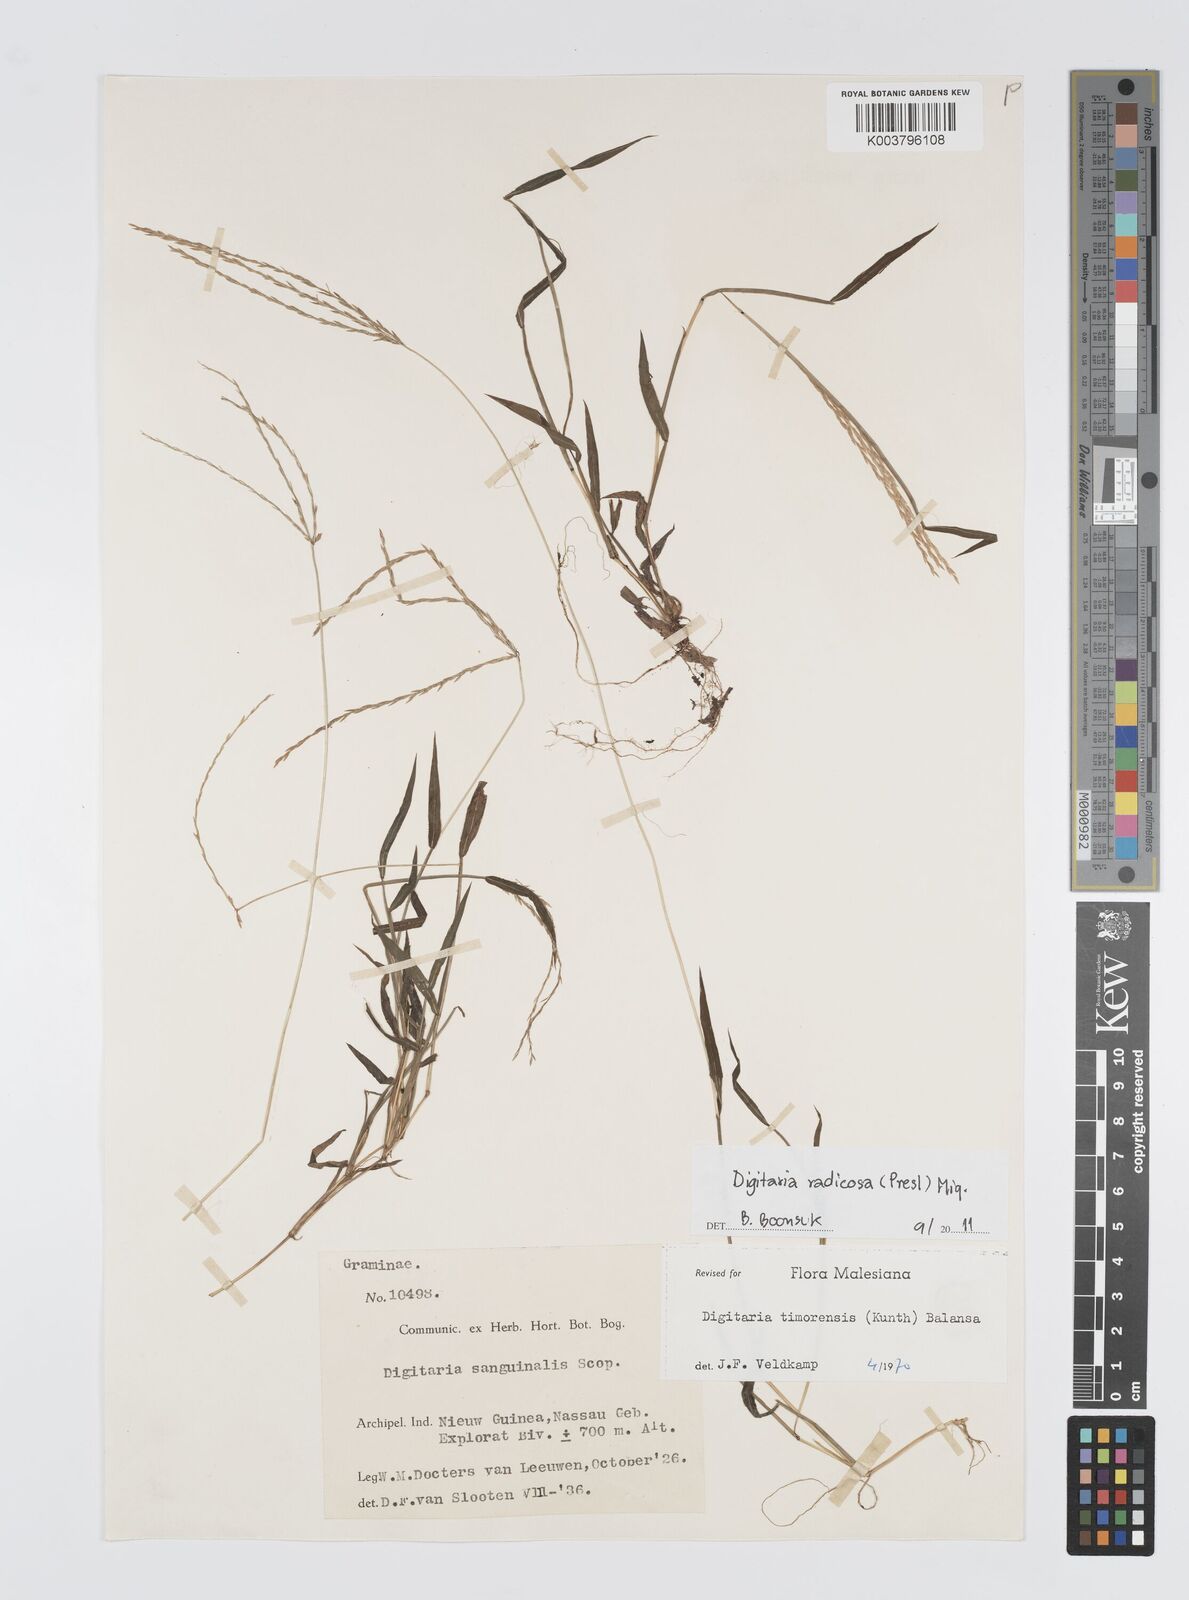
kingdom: Plantae
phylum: Tracheophyta
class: Liliopsida
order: Poales
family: Poaceae
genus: Digitaria
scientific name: Digitaria radicosa
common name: Trailing crabgrass
